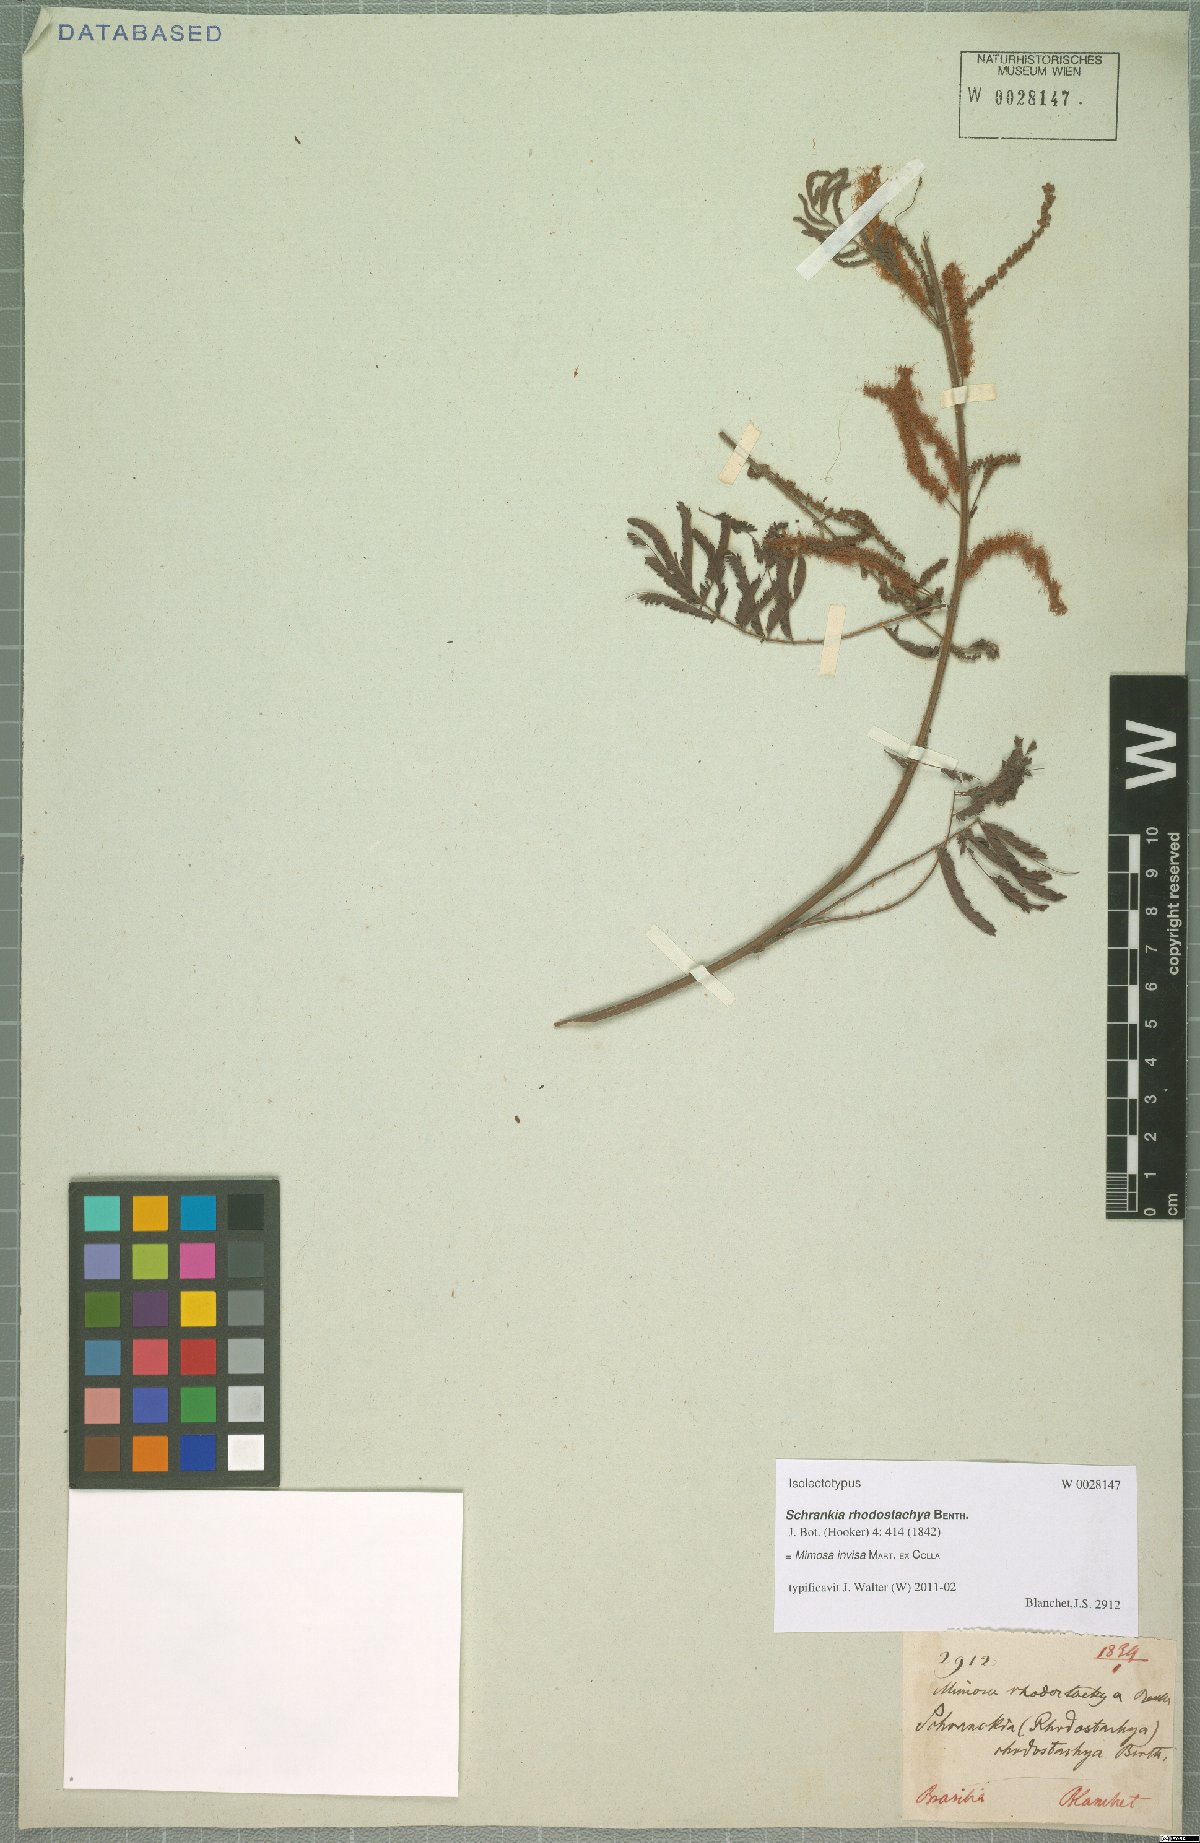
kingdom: Plantae
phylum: Tracheophyta
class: Magnoliopsida
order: Fabales
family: Fabaceae
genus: Mimosa
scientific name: Mimosa invisa
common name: Creeping sensitive-plant
